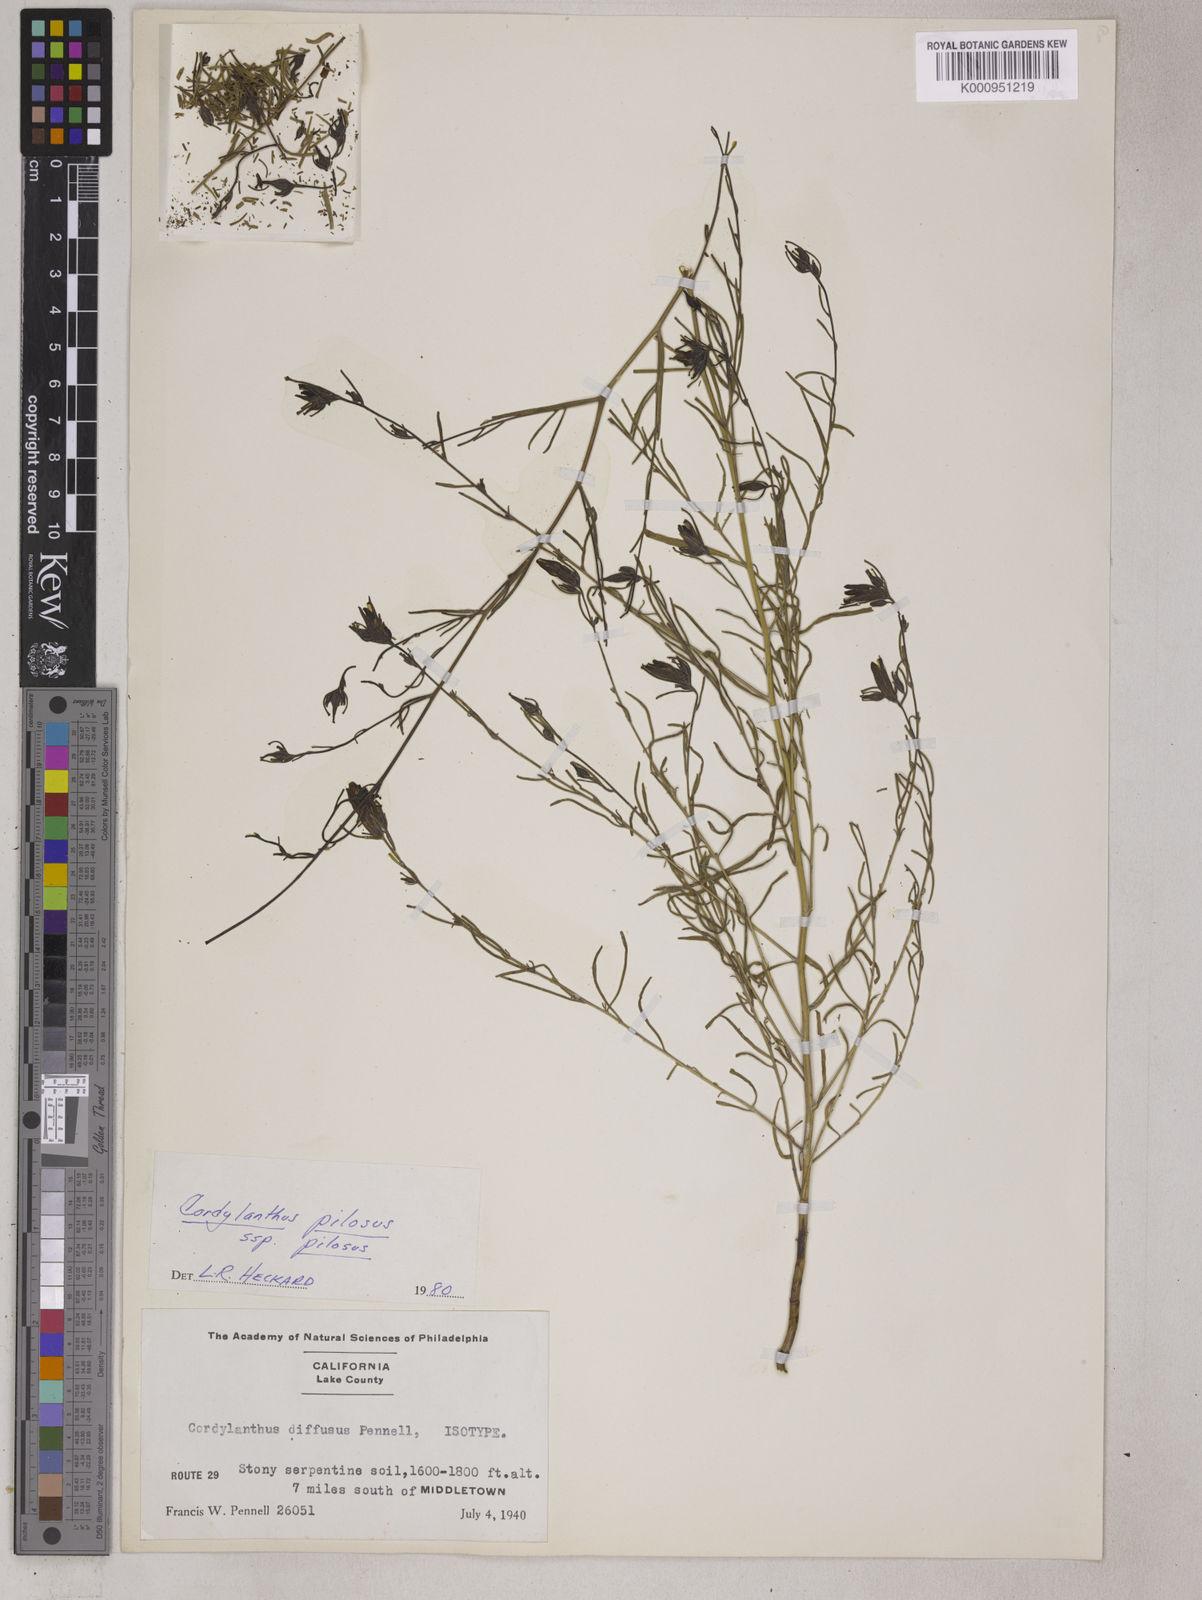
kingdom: Plantae
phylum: Tracheophyta
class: Magnoliopsida
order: Lamiales
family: Orobanchaceae
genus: Cordylanthus
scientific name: Cordylanthus pilosus
